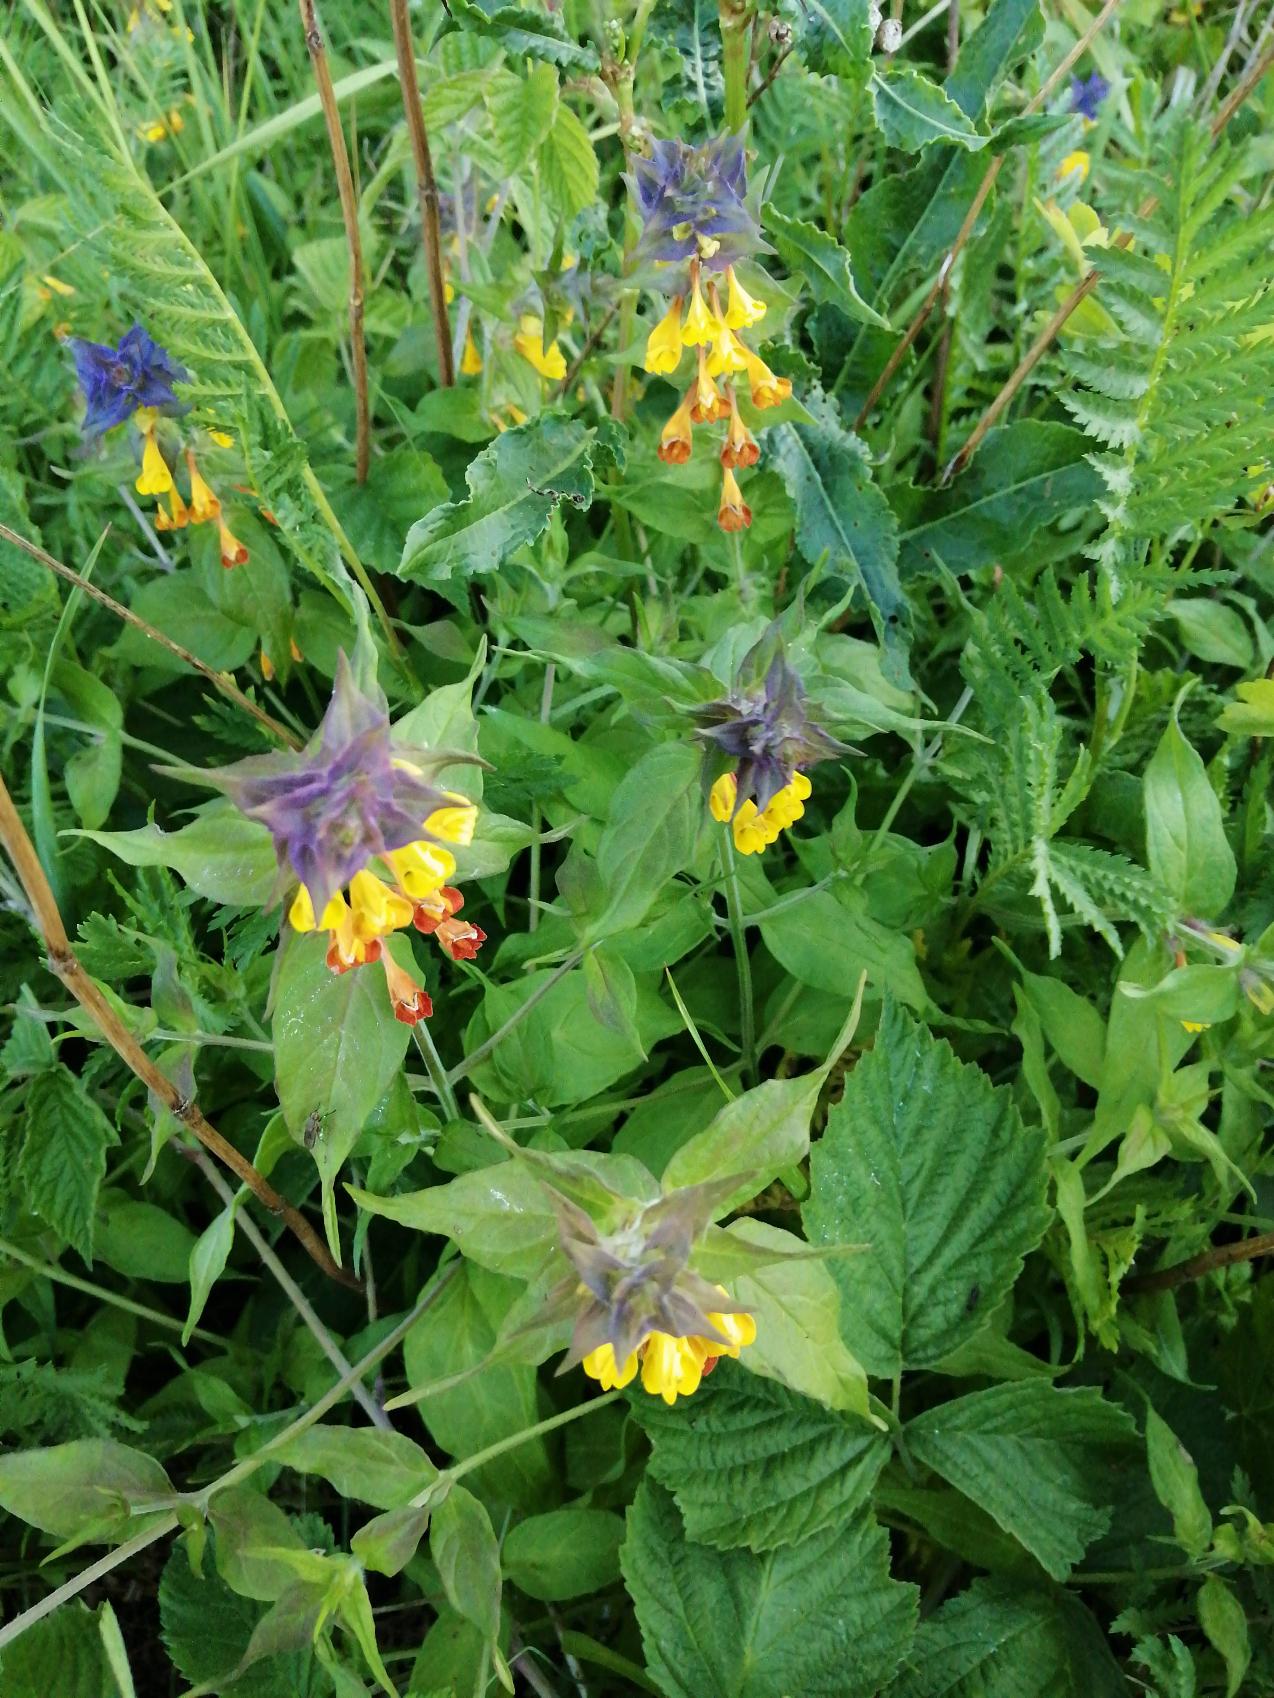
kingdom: Plantae
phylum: Tracheophyta
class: Magnoliopsida
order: Lamiales
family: Orobanchaceae
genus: Melampyrum
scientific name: Melampyrum nemorosum
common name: Blåtoppet kohvede
